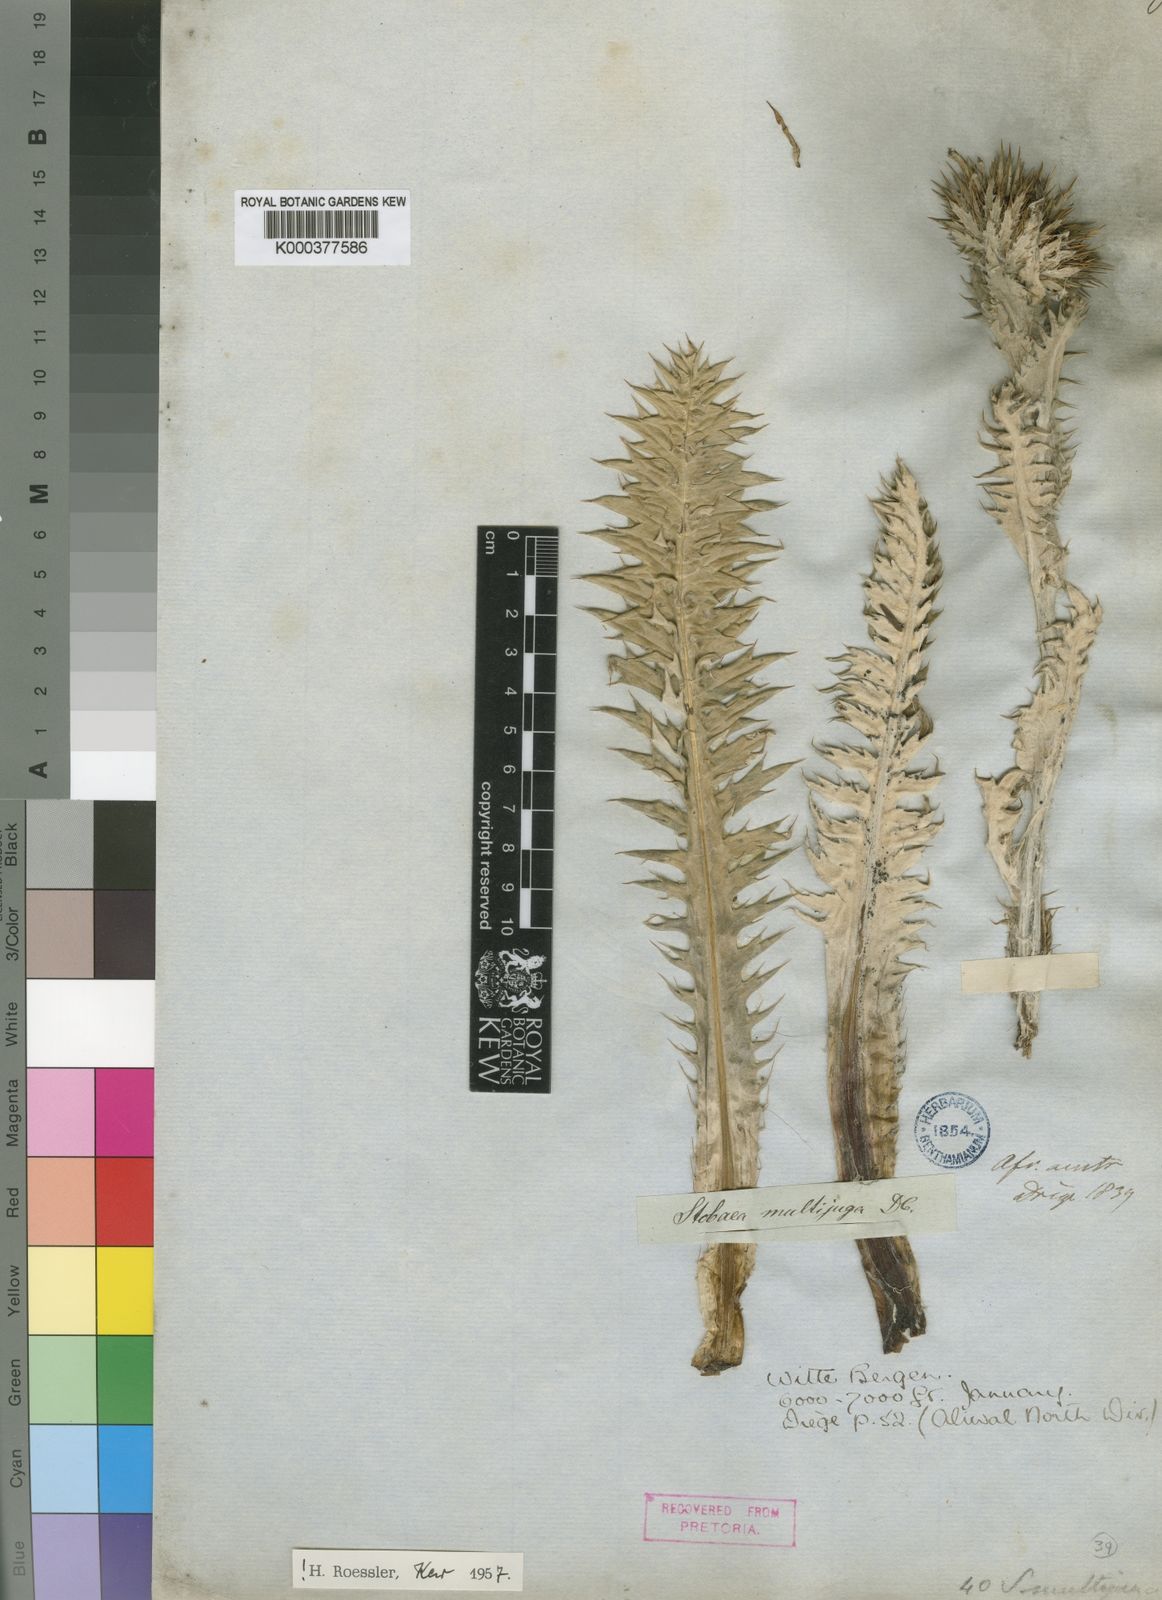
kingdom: Plantae
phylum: Tracheophyta
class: Magnoliopsida
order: Asterales
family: Asteraceae
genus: Berkheya
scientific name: Berkheya multijuga
